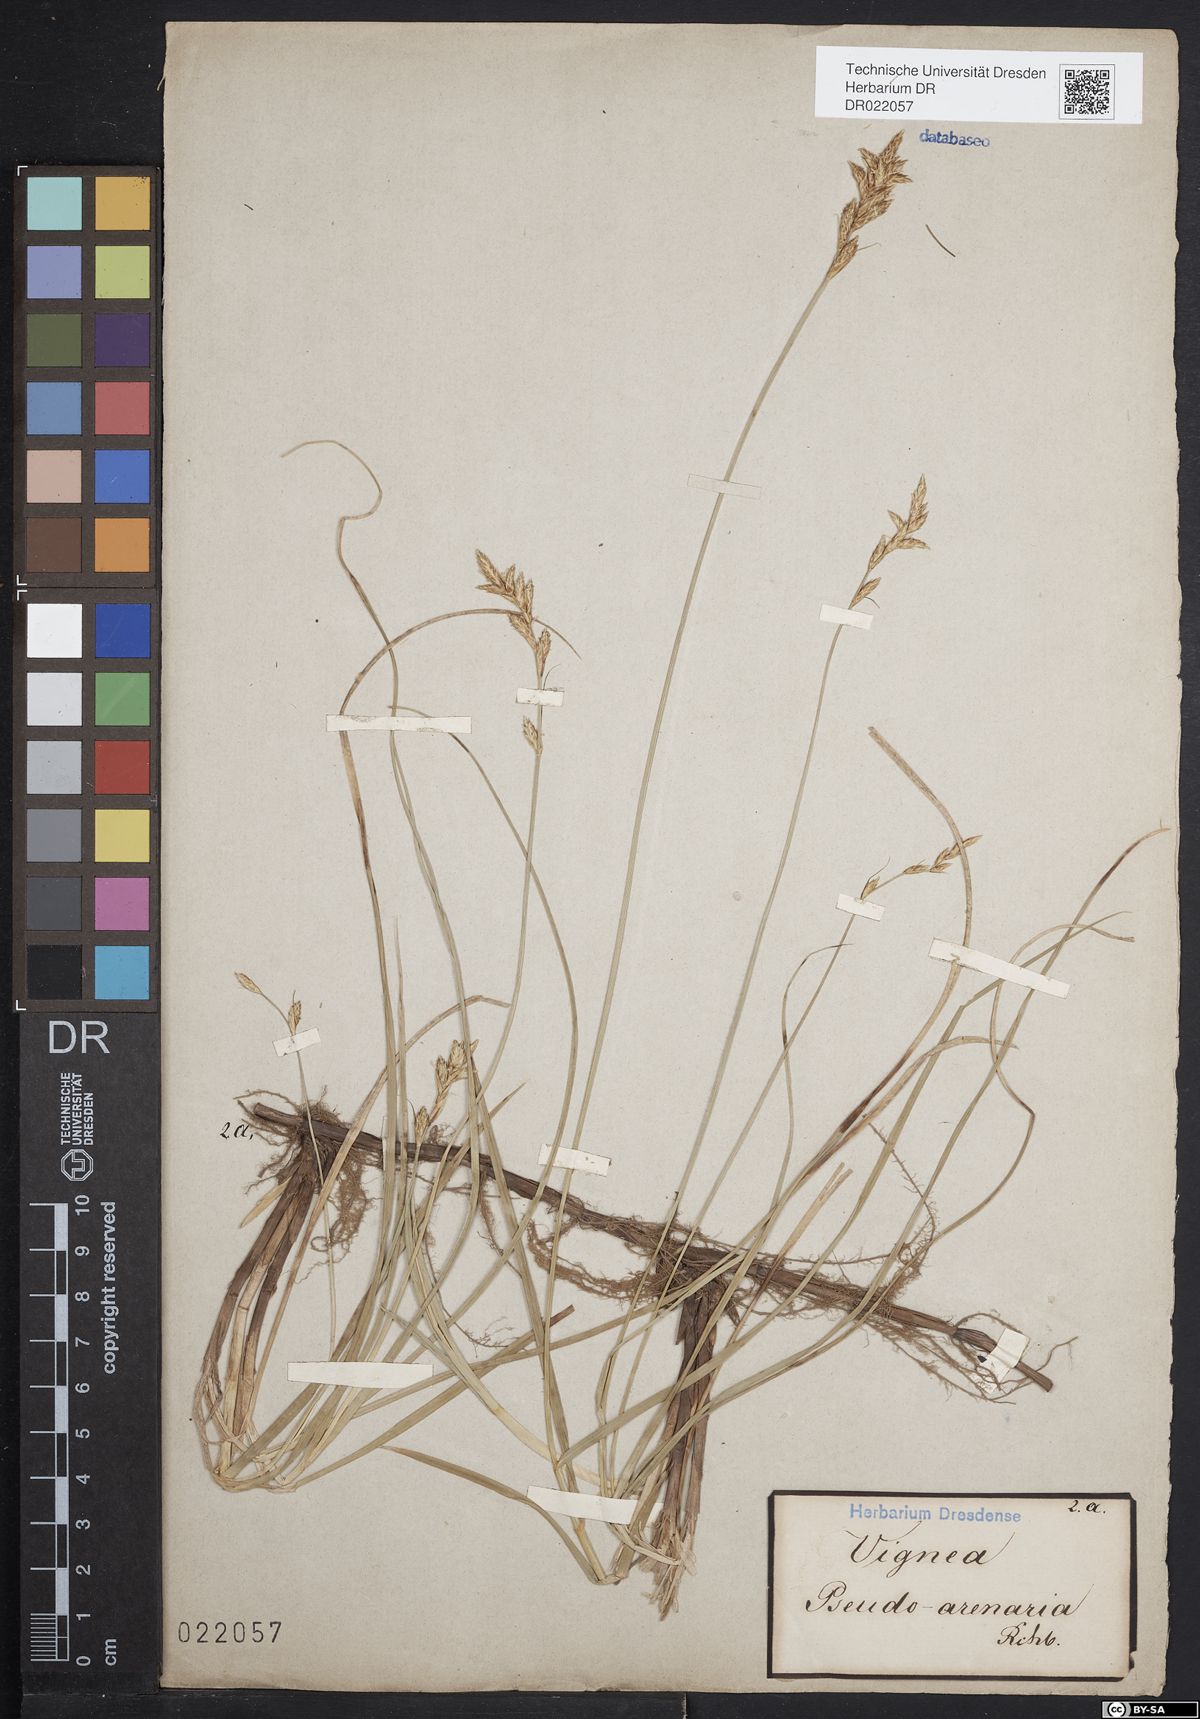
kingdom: Plantae
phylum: Tracheophyta
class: Liliopsida
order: Poales
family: Cyperaceae
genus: Carex
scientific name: Carex pseudobrizoides
